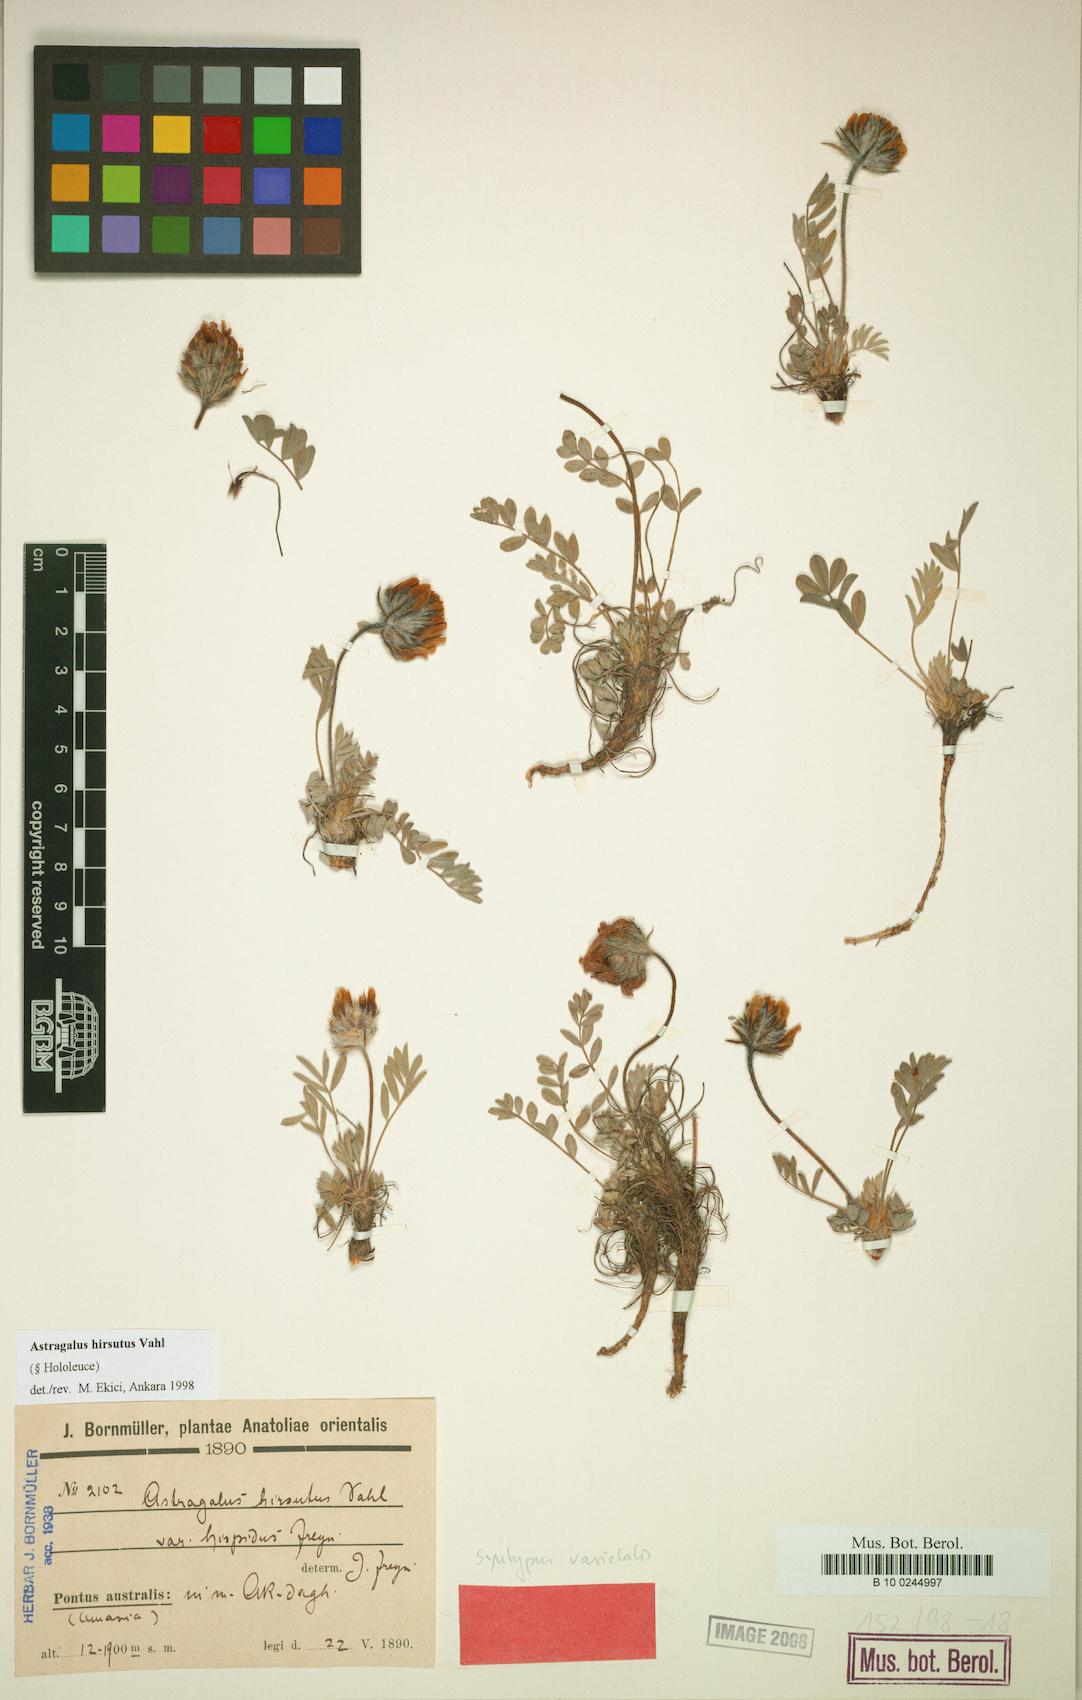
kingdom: Plantae
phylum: Tracheophyta
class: Magnoliopsida
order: Fabales
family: Fabaceae
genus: Astragalus
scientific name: Astragalus hirsutus
